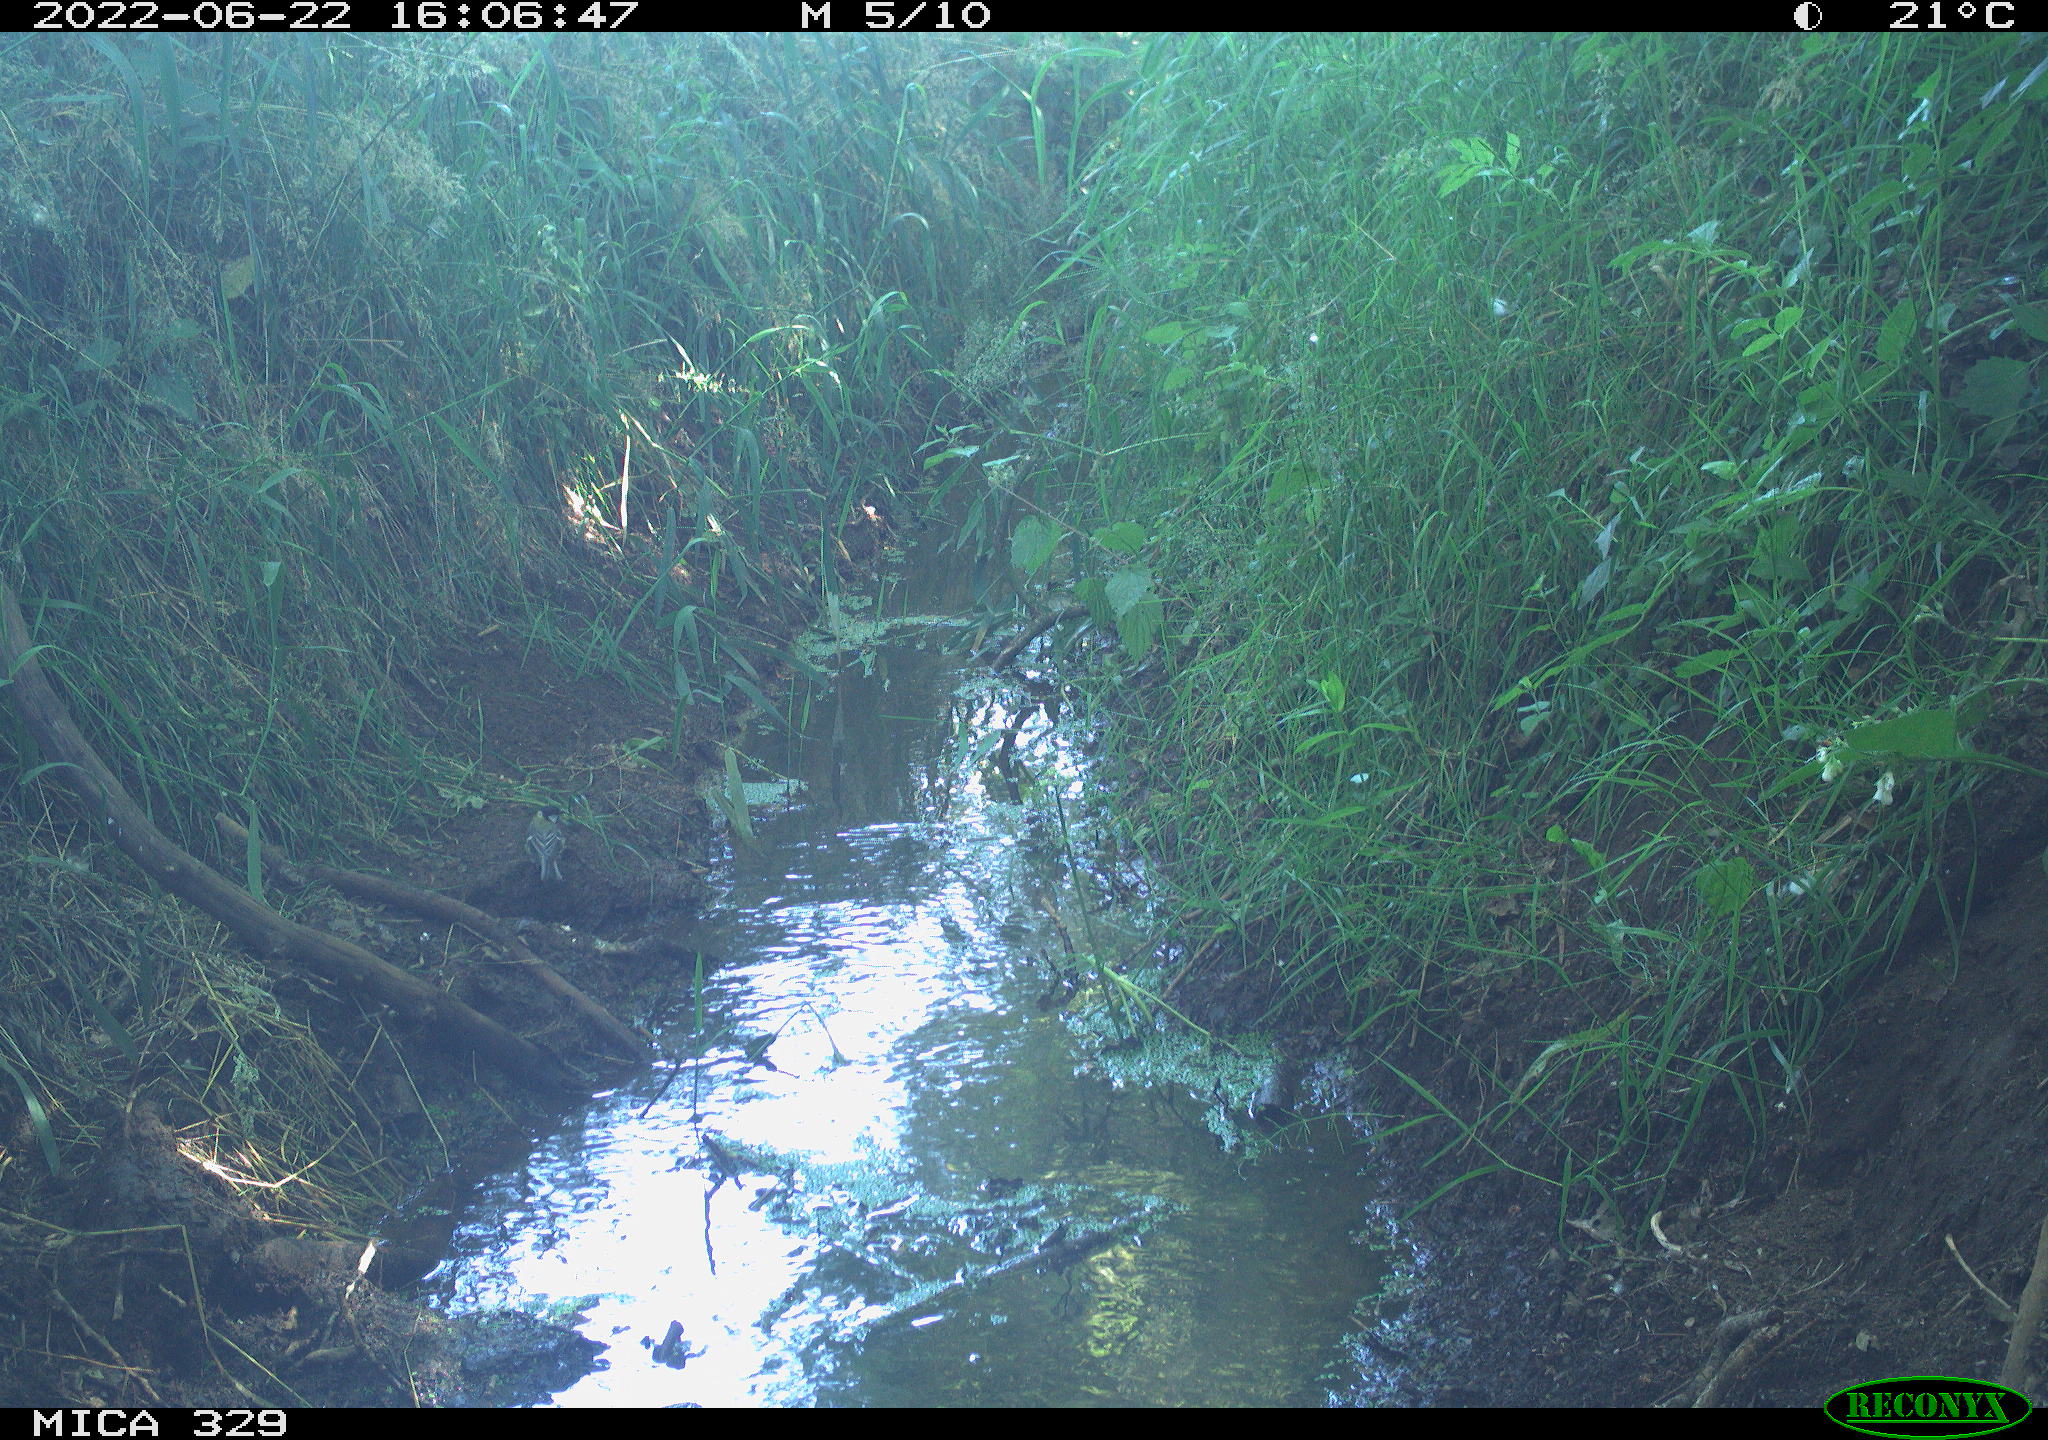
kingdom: Animalia
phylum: Chordata
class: Aves
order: Passeriformes
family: Paridae
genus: Parus
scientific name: Parus major
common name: Great tit
